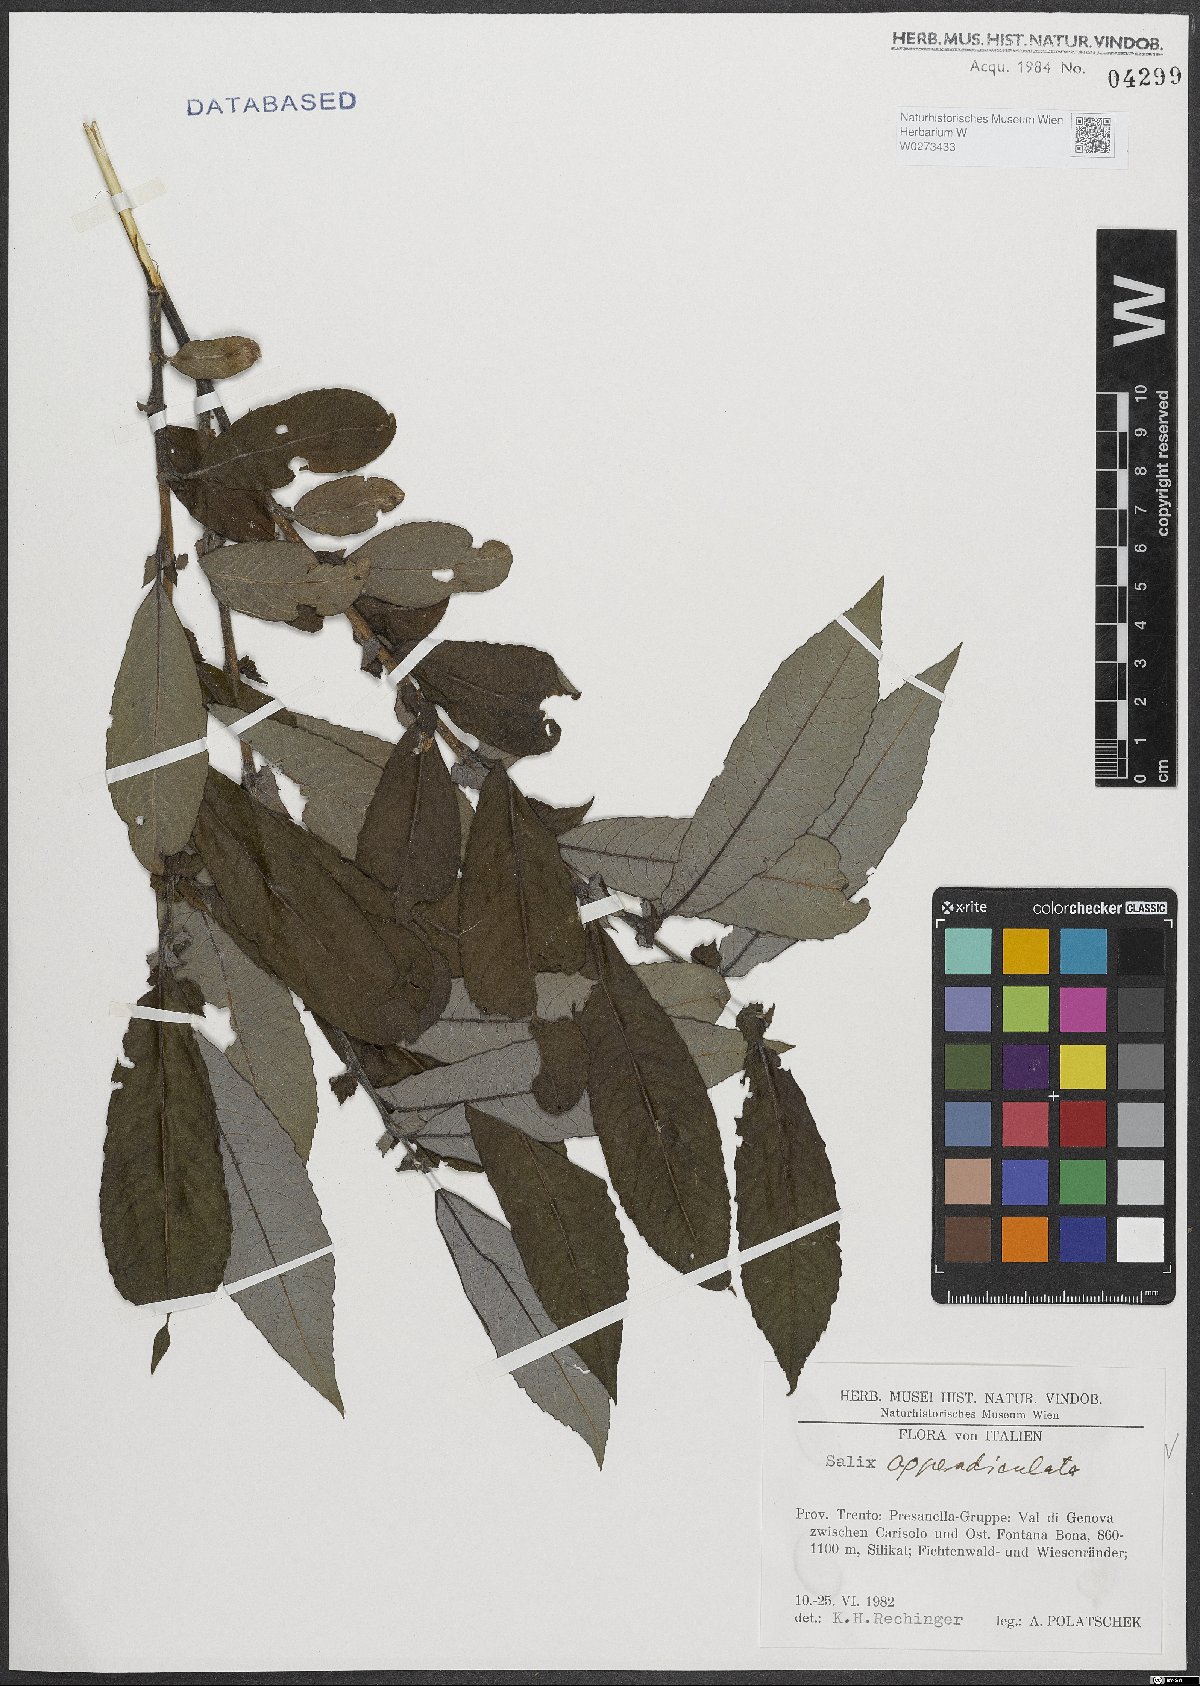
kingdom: Plantae
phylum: Tracheophyta
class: Magnoliopsida
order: Malpighiales
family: Salicaceae
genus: Salix
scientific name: Salix appendiculata
